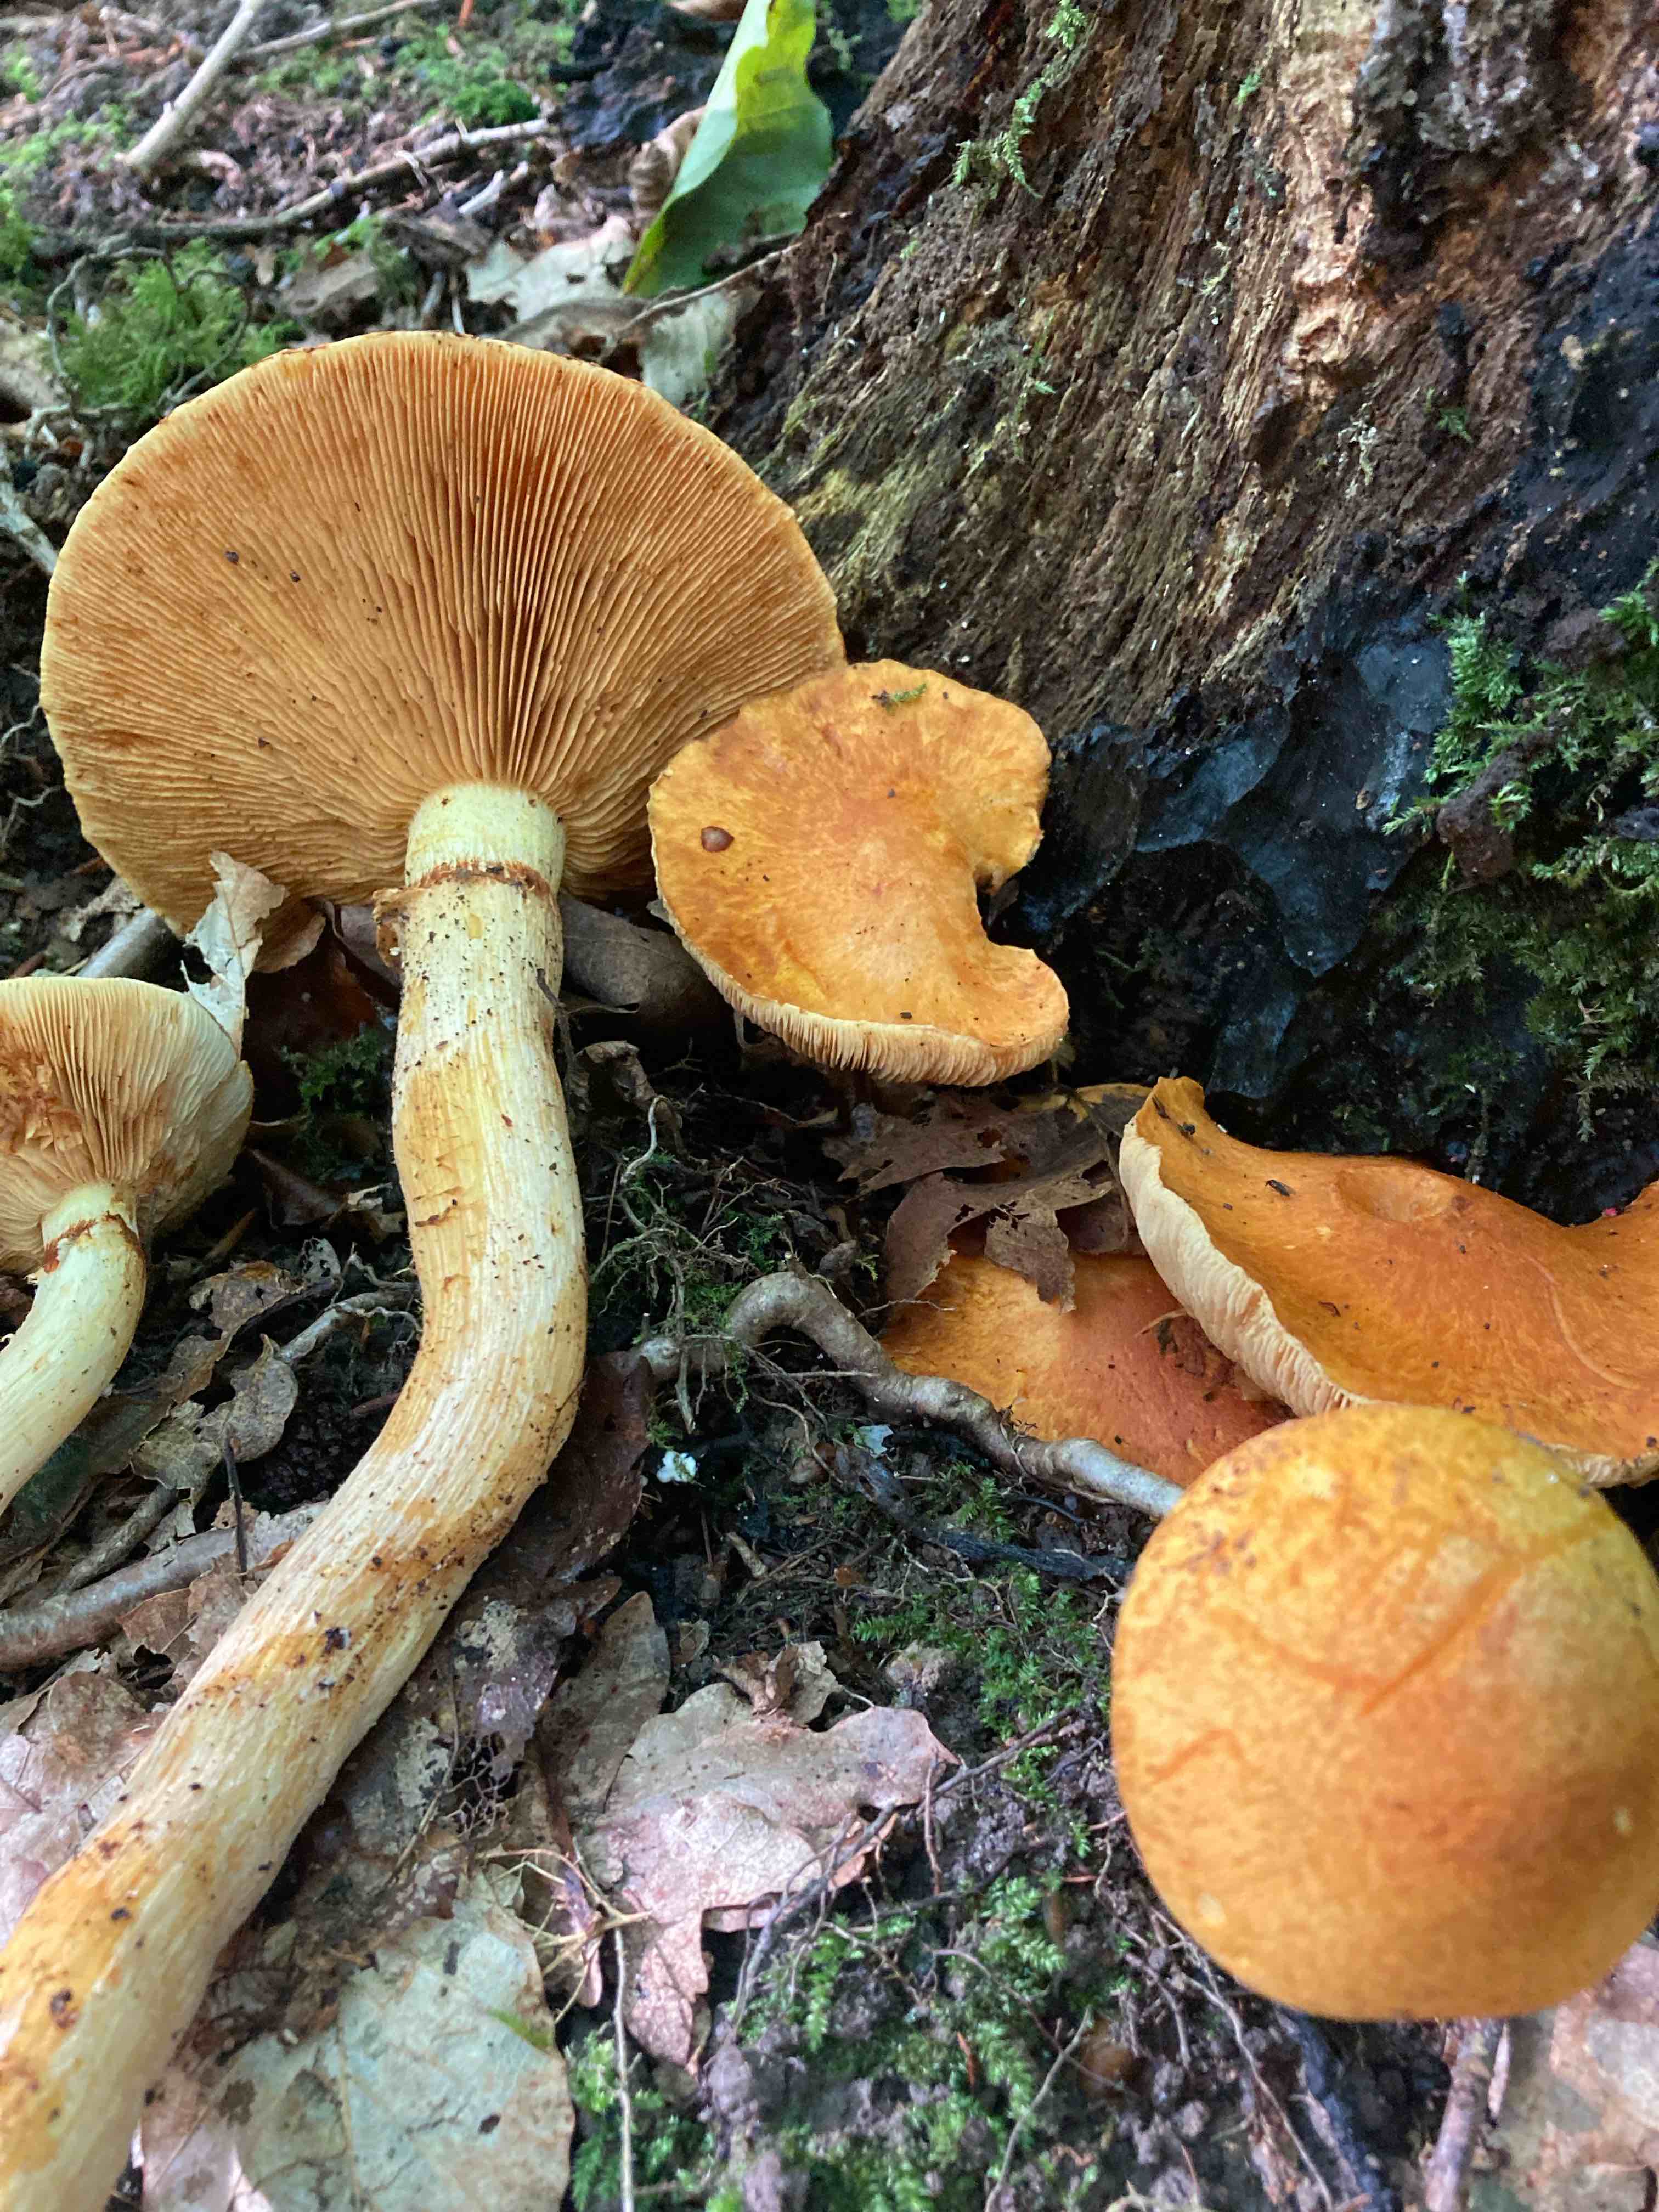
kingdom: Fungi
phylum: Basidiomycota
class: Agaricomycetes
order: Agaricales
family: Hymenogastraceae
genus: Gymnopilus
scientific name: Gymnopilus spectabilis
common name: fibret flammehat
